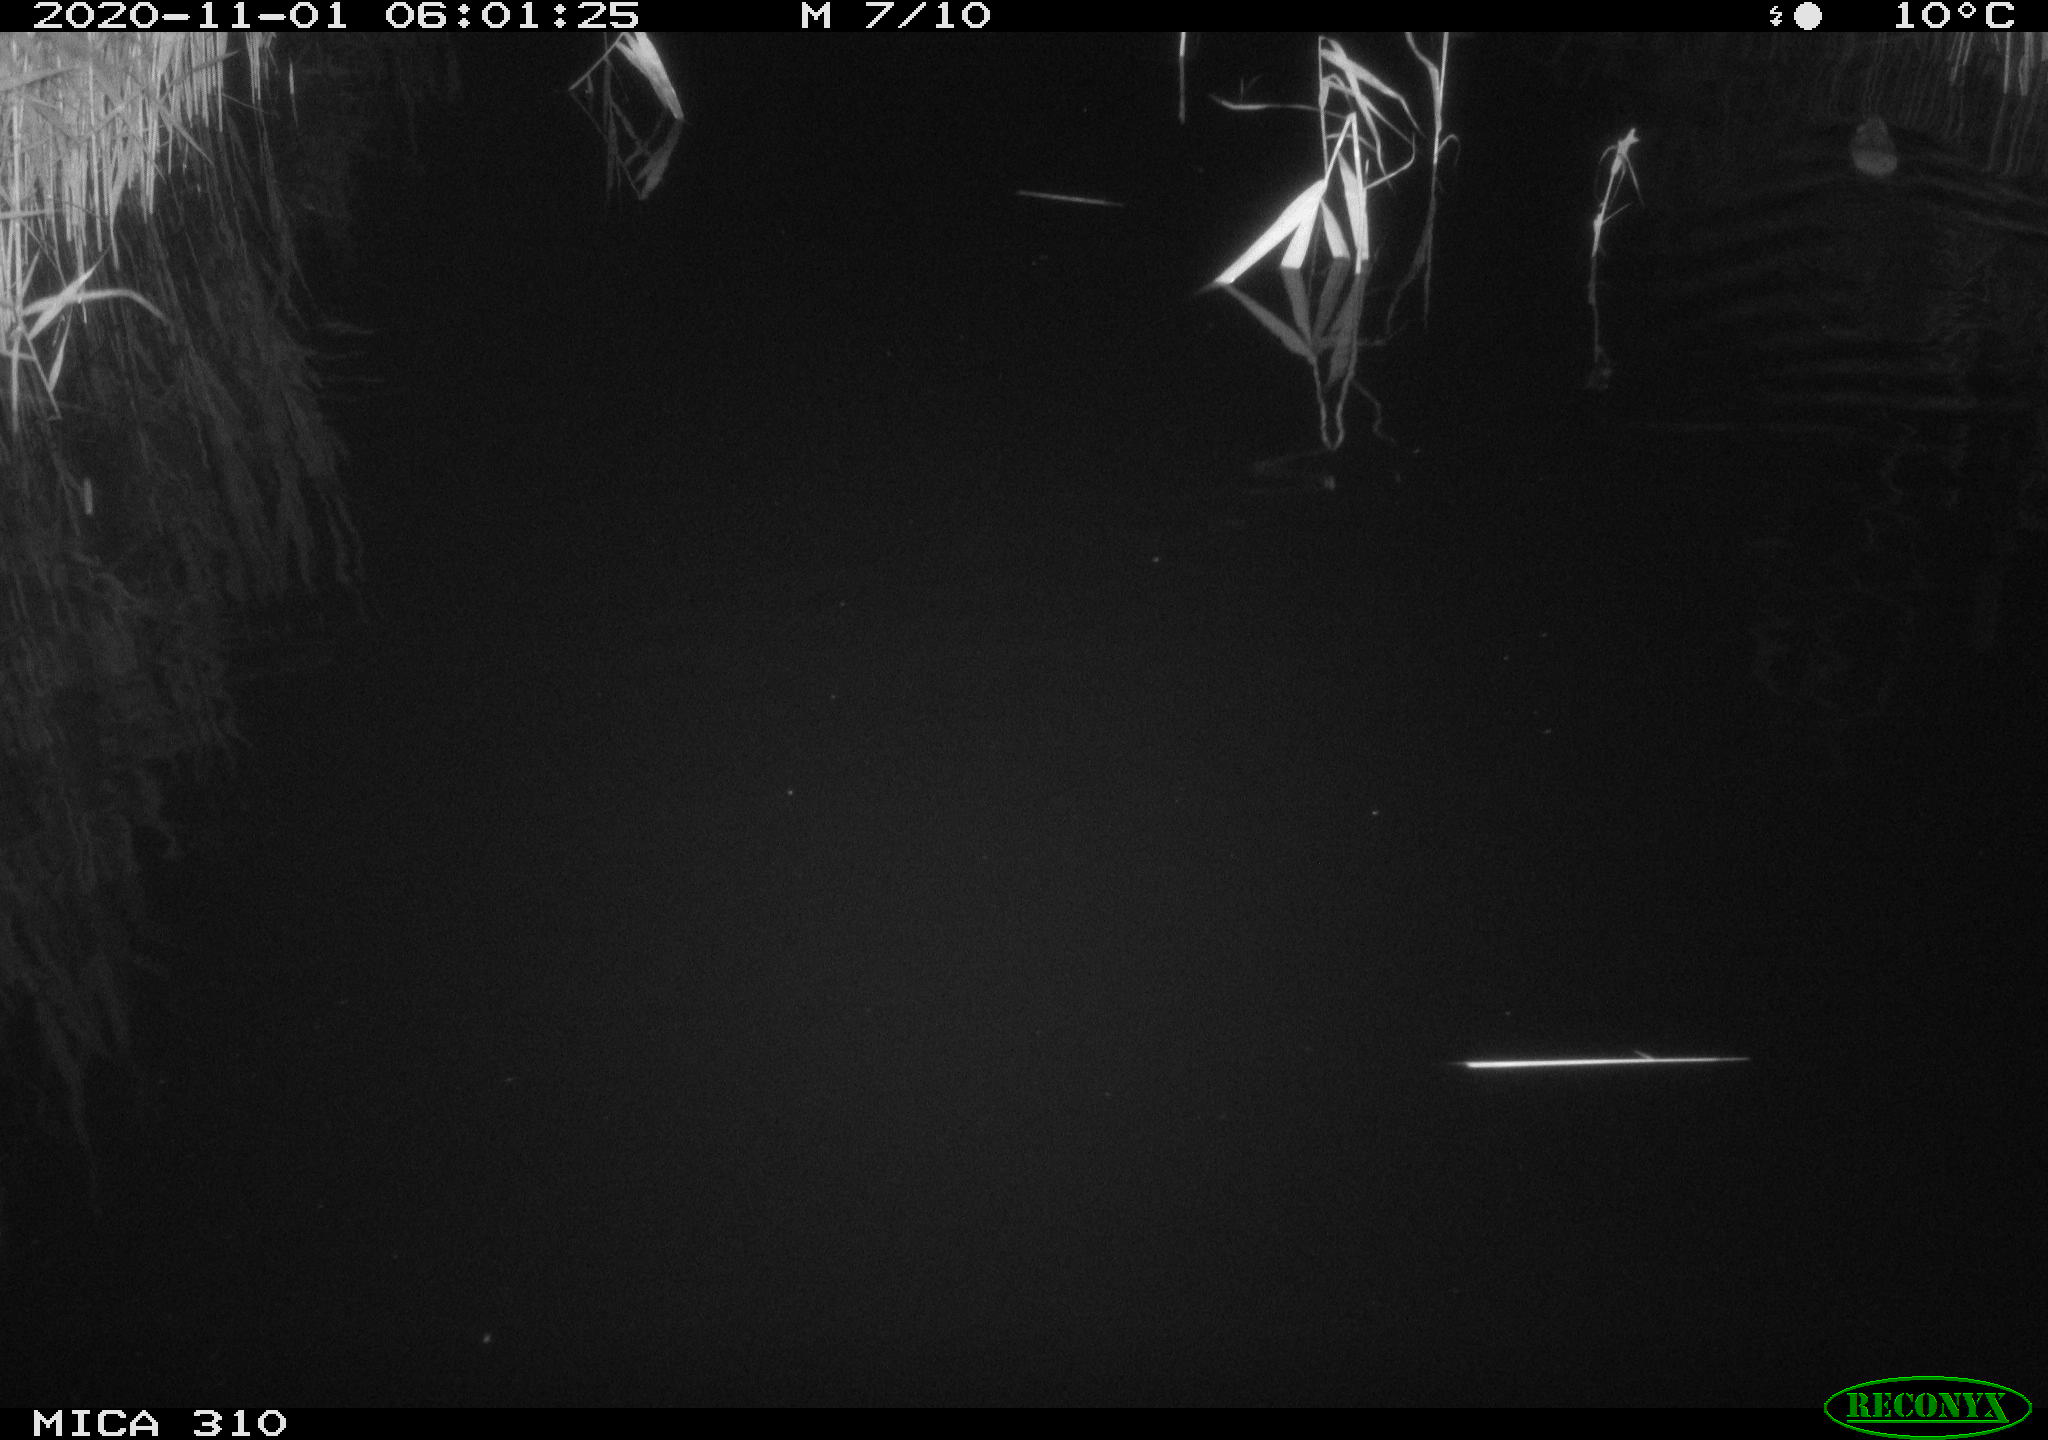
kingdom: Animalia
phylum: Chordata
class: Mammalia
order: Rodentia
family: Muridae
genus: Rattus
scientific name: Rattus norvegicus
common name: Brown rat
